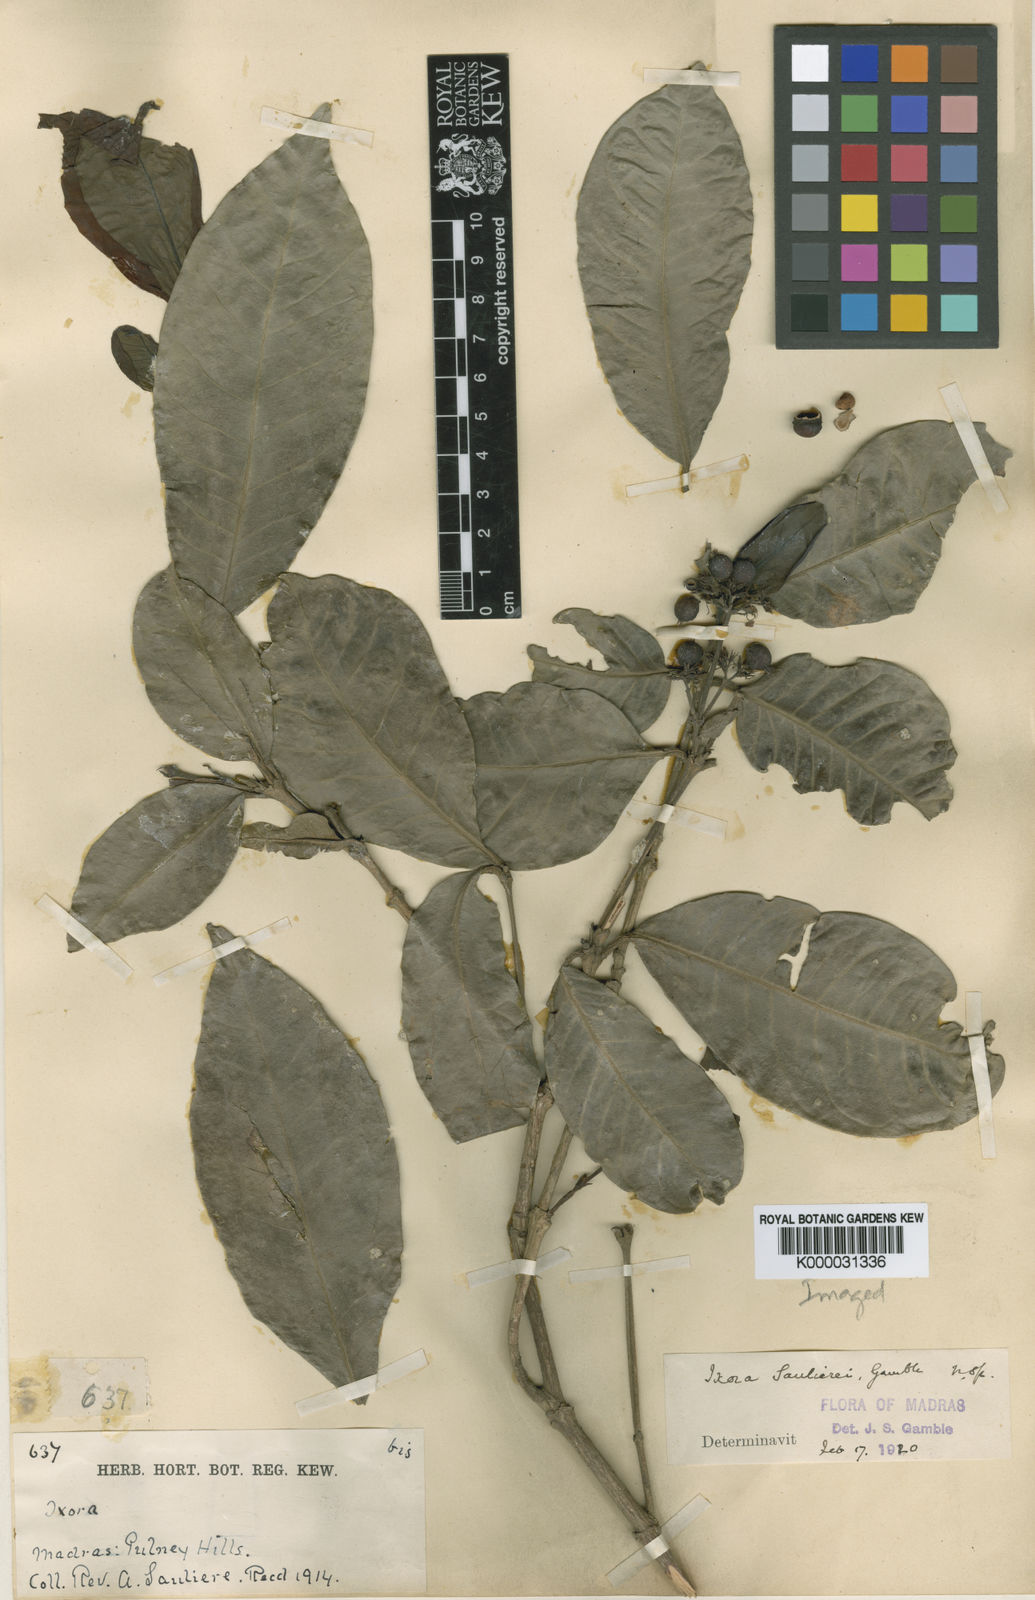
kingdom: Plantae
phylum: Tracheophyta
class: Magnoliopsida
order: Gentianales
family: Rubiaceae
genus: Ixora
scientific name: Ixora
